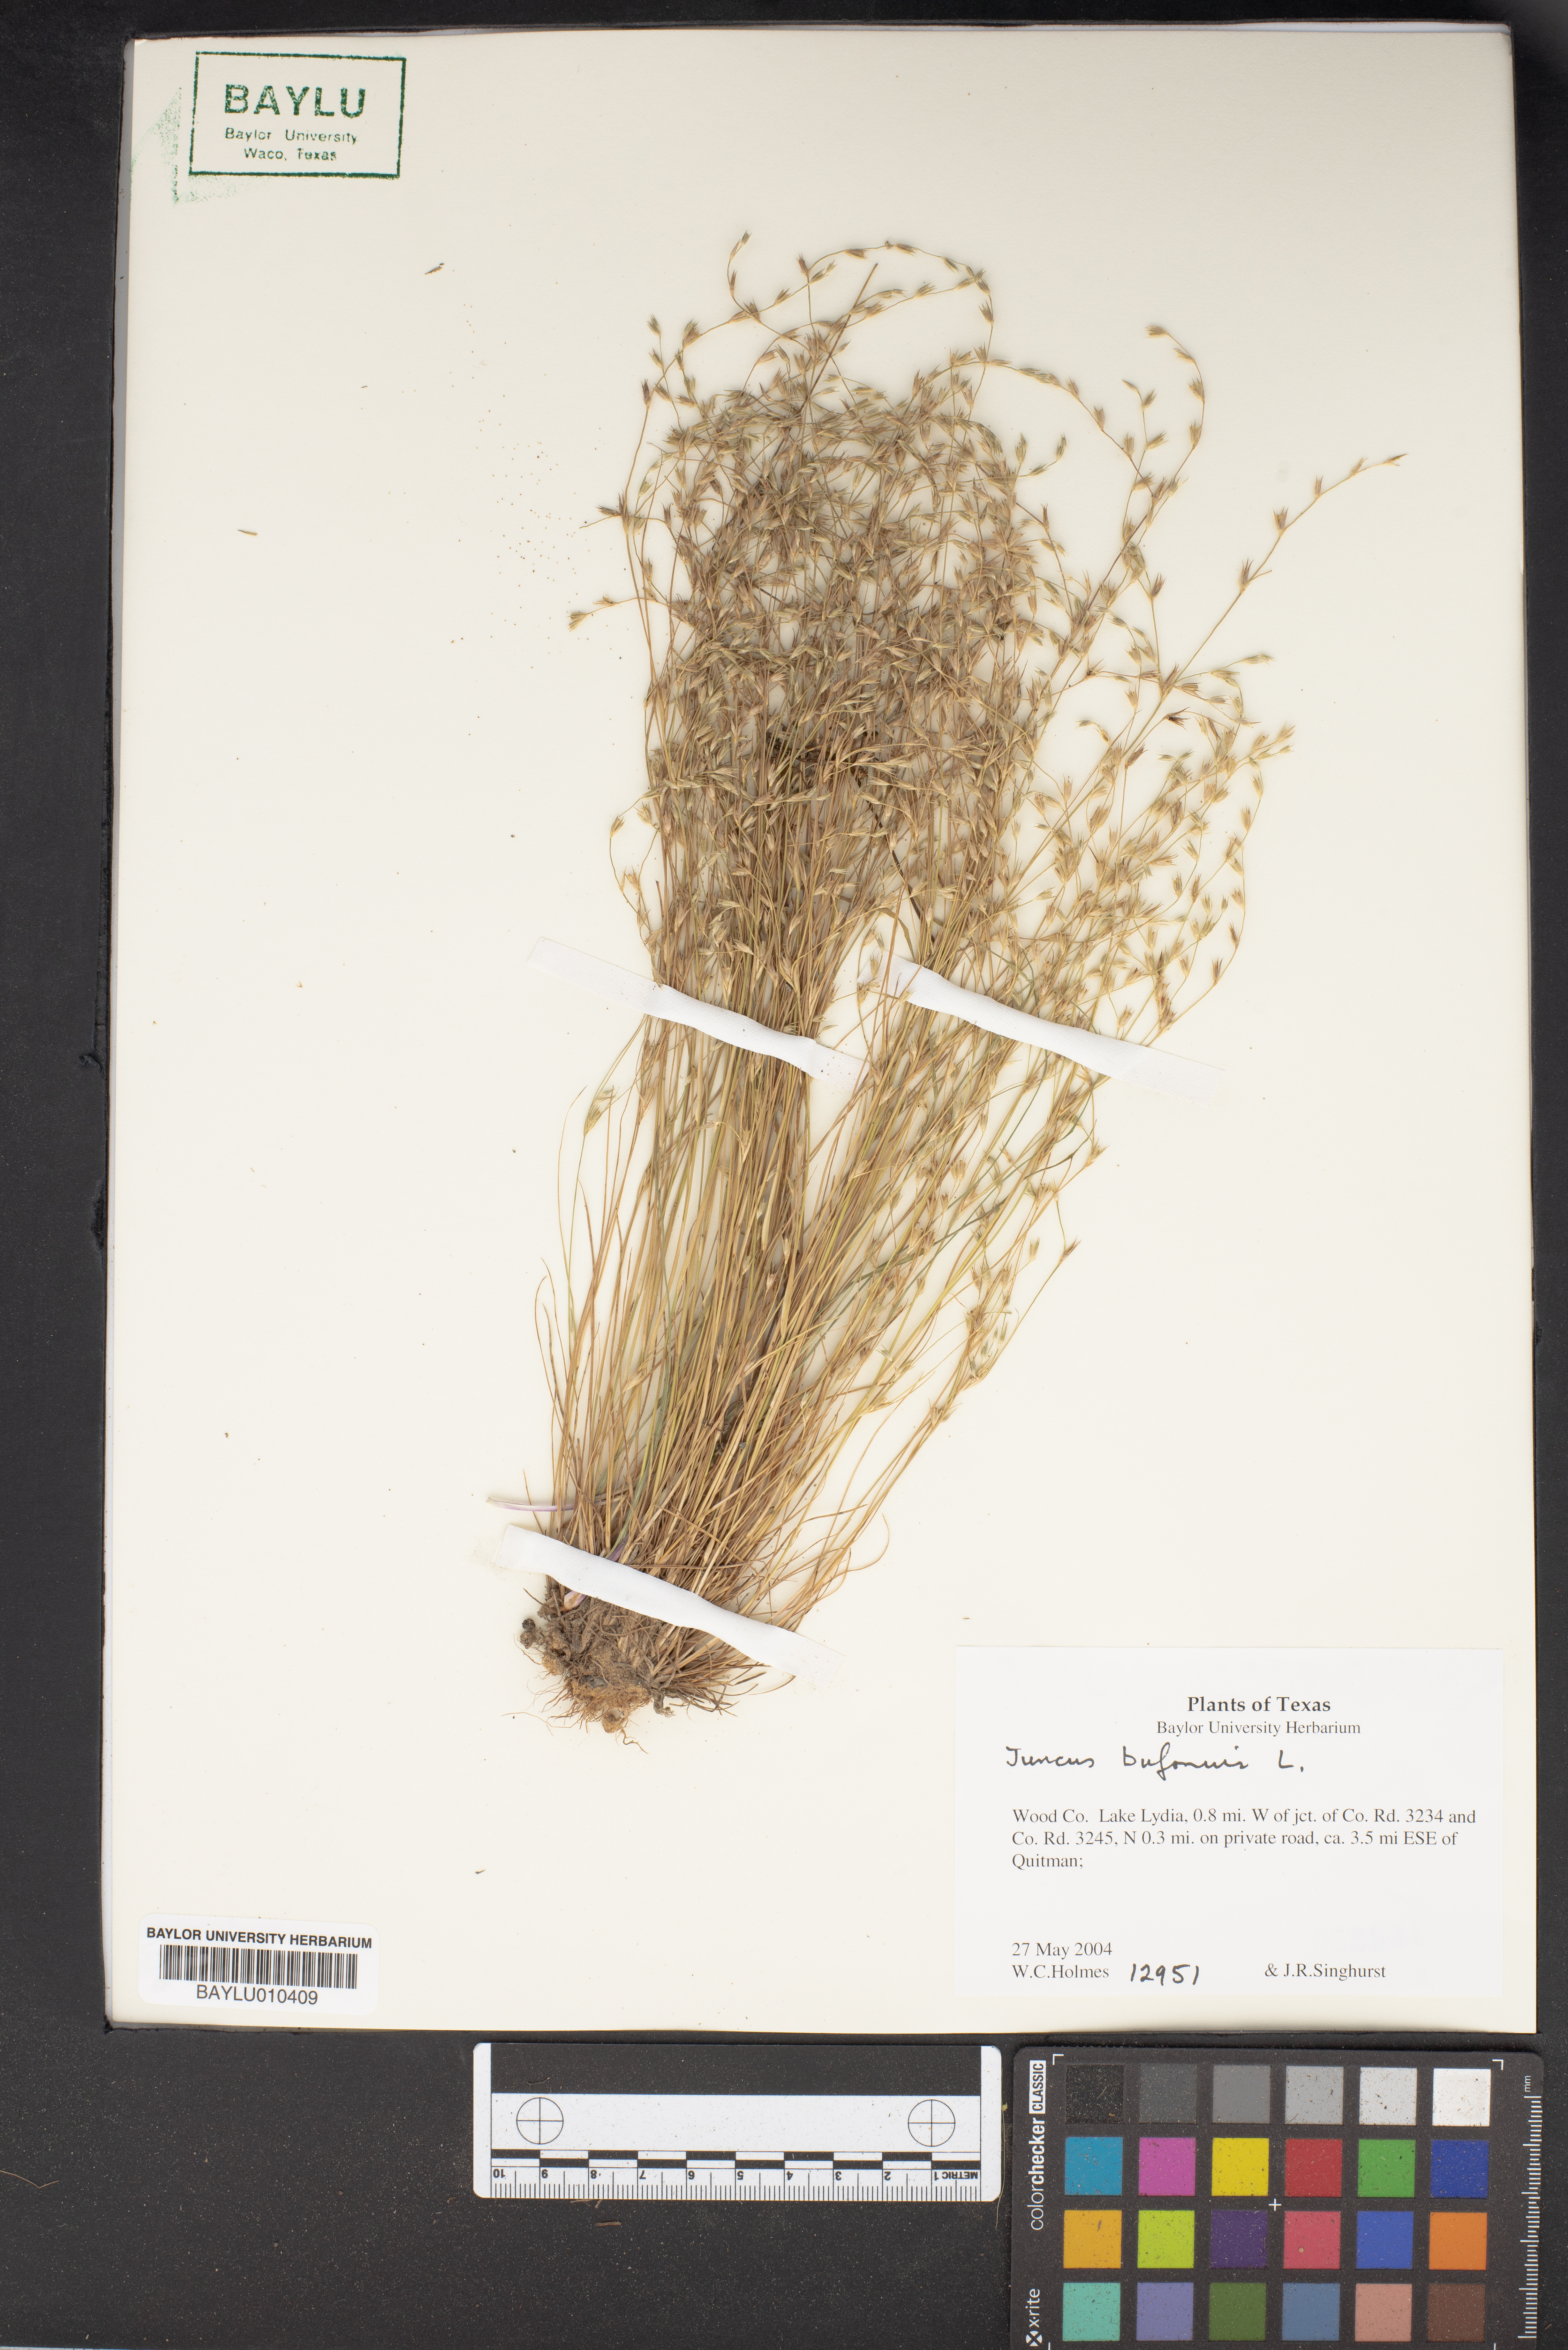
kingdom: Plantae
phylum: Tracheophyta
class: Liliopsida
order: Poales
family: Juncaceae
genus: Juncus
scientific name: Juncus bufonius
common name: Toad rush
